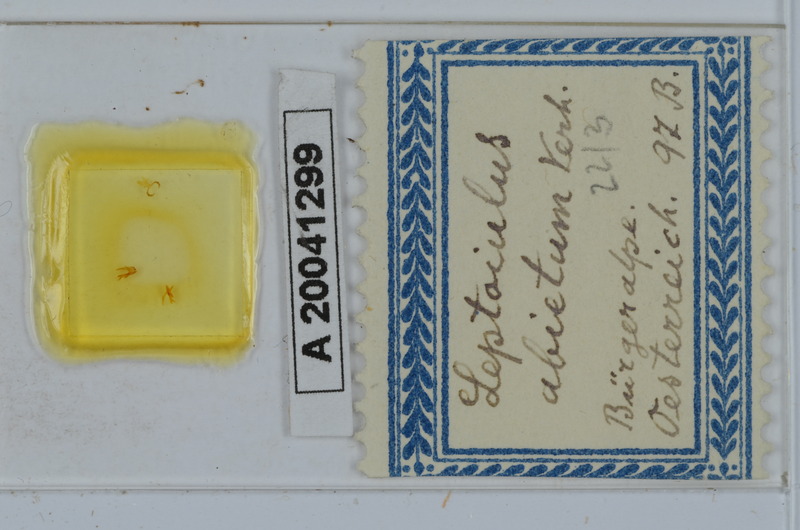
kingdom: Animalia
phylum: Arthropoda
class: Diplopoda
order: Julida
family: Julidae
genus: Leptoiulus
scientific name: Leptoiulus abietum
